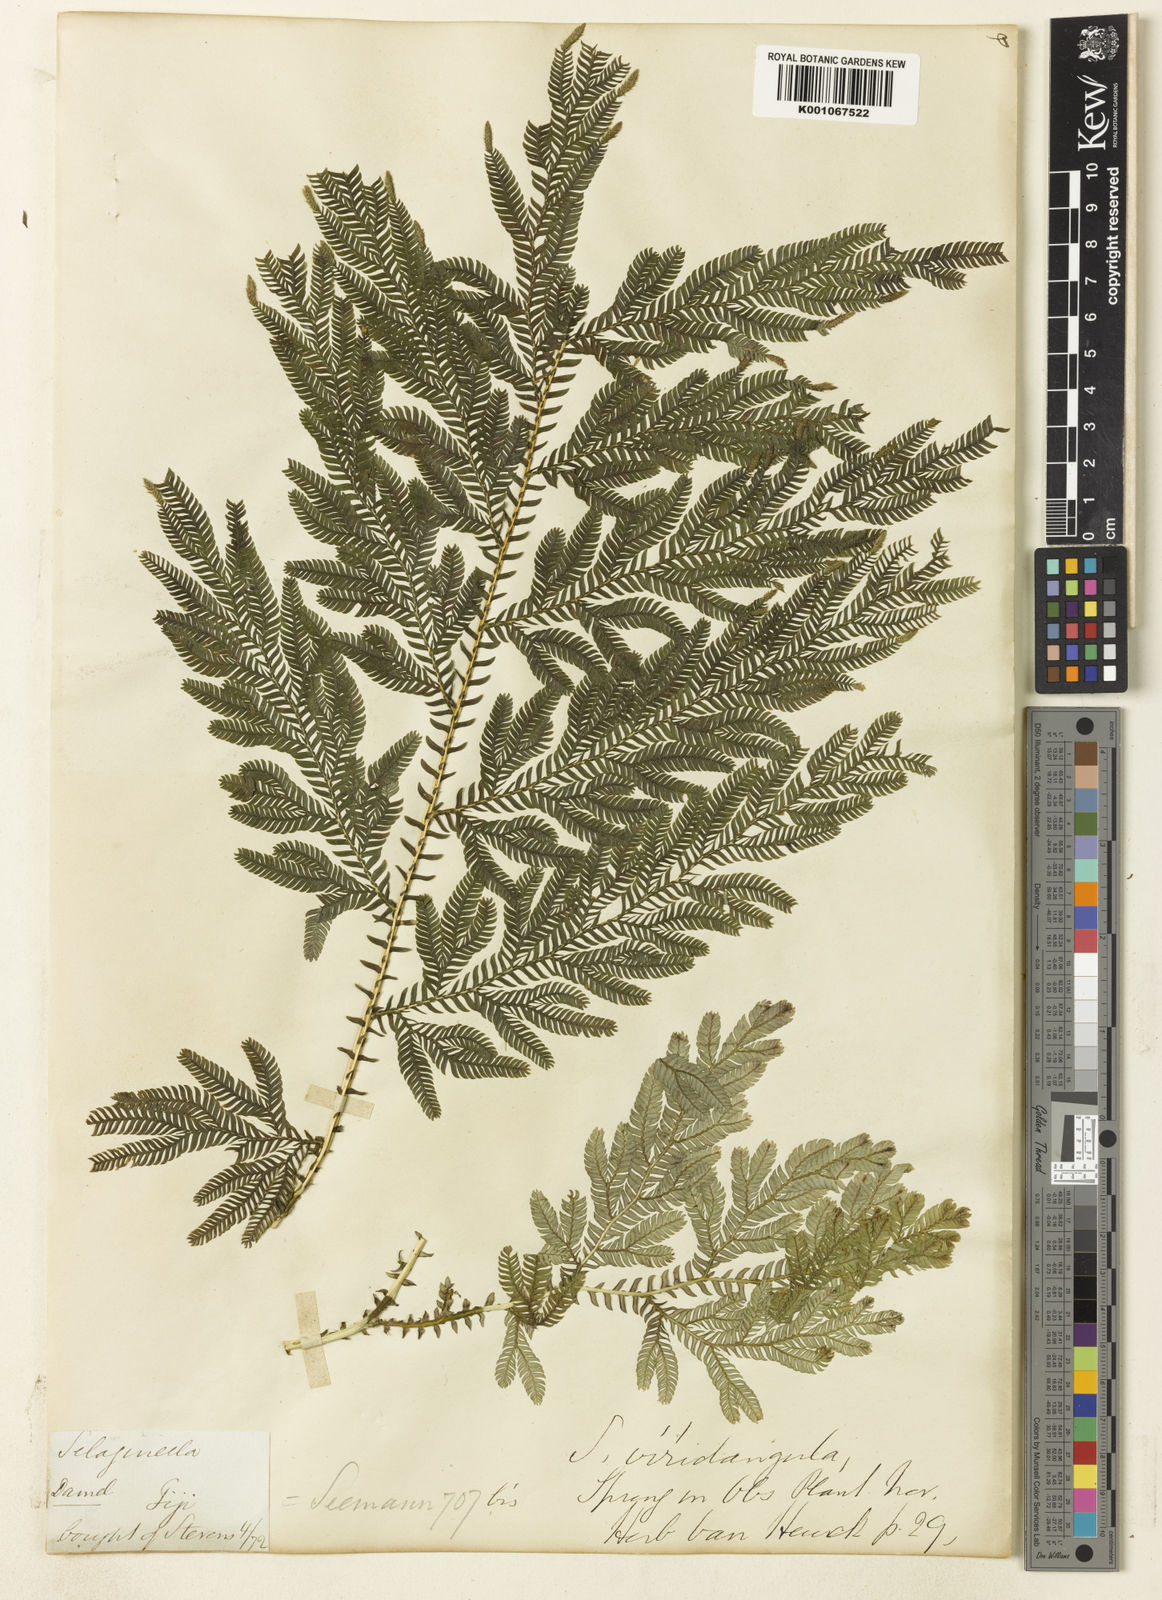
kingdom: Plantae
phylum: Tracheophyta
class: Lycopodiopsida
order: Selaginellales
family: Selaginellaceae
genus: Selaginella
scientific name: Selaginella viridangula
